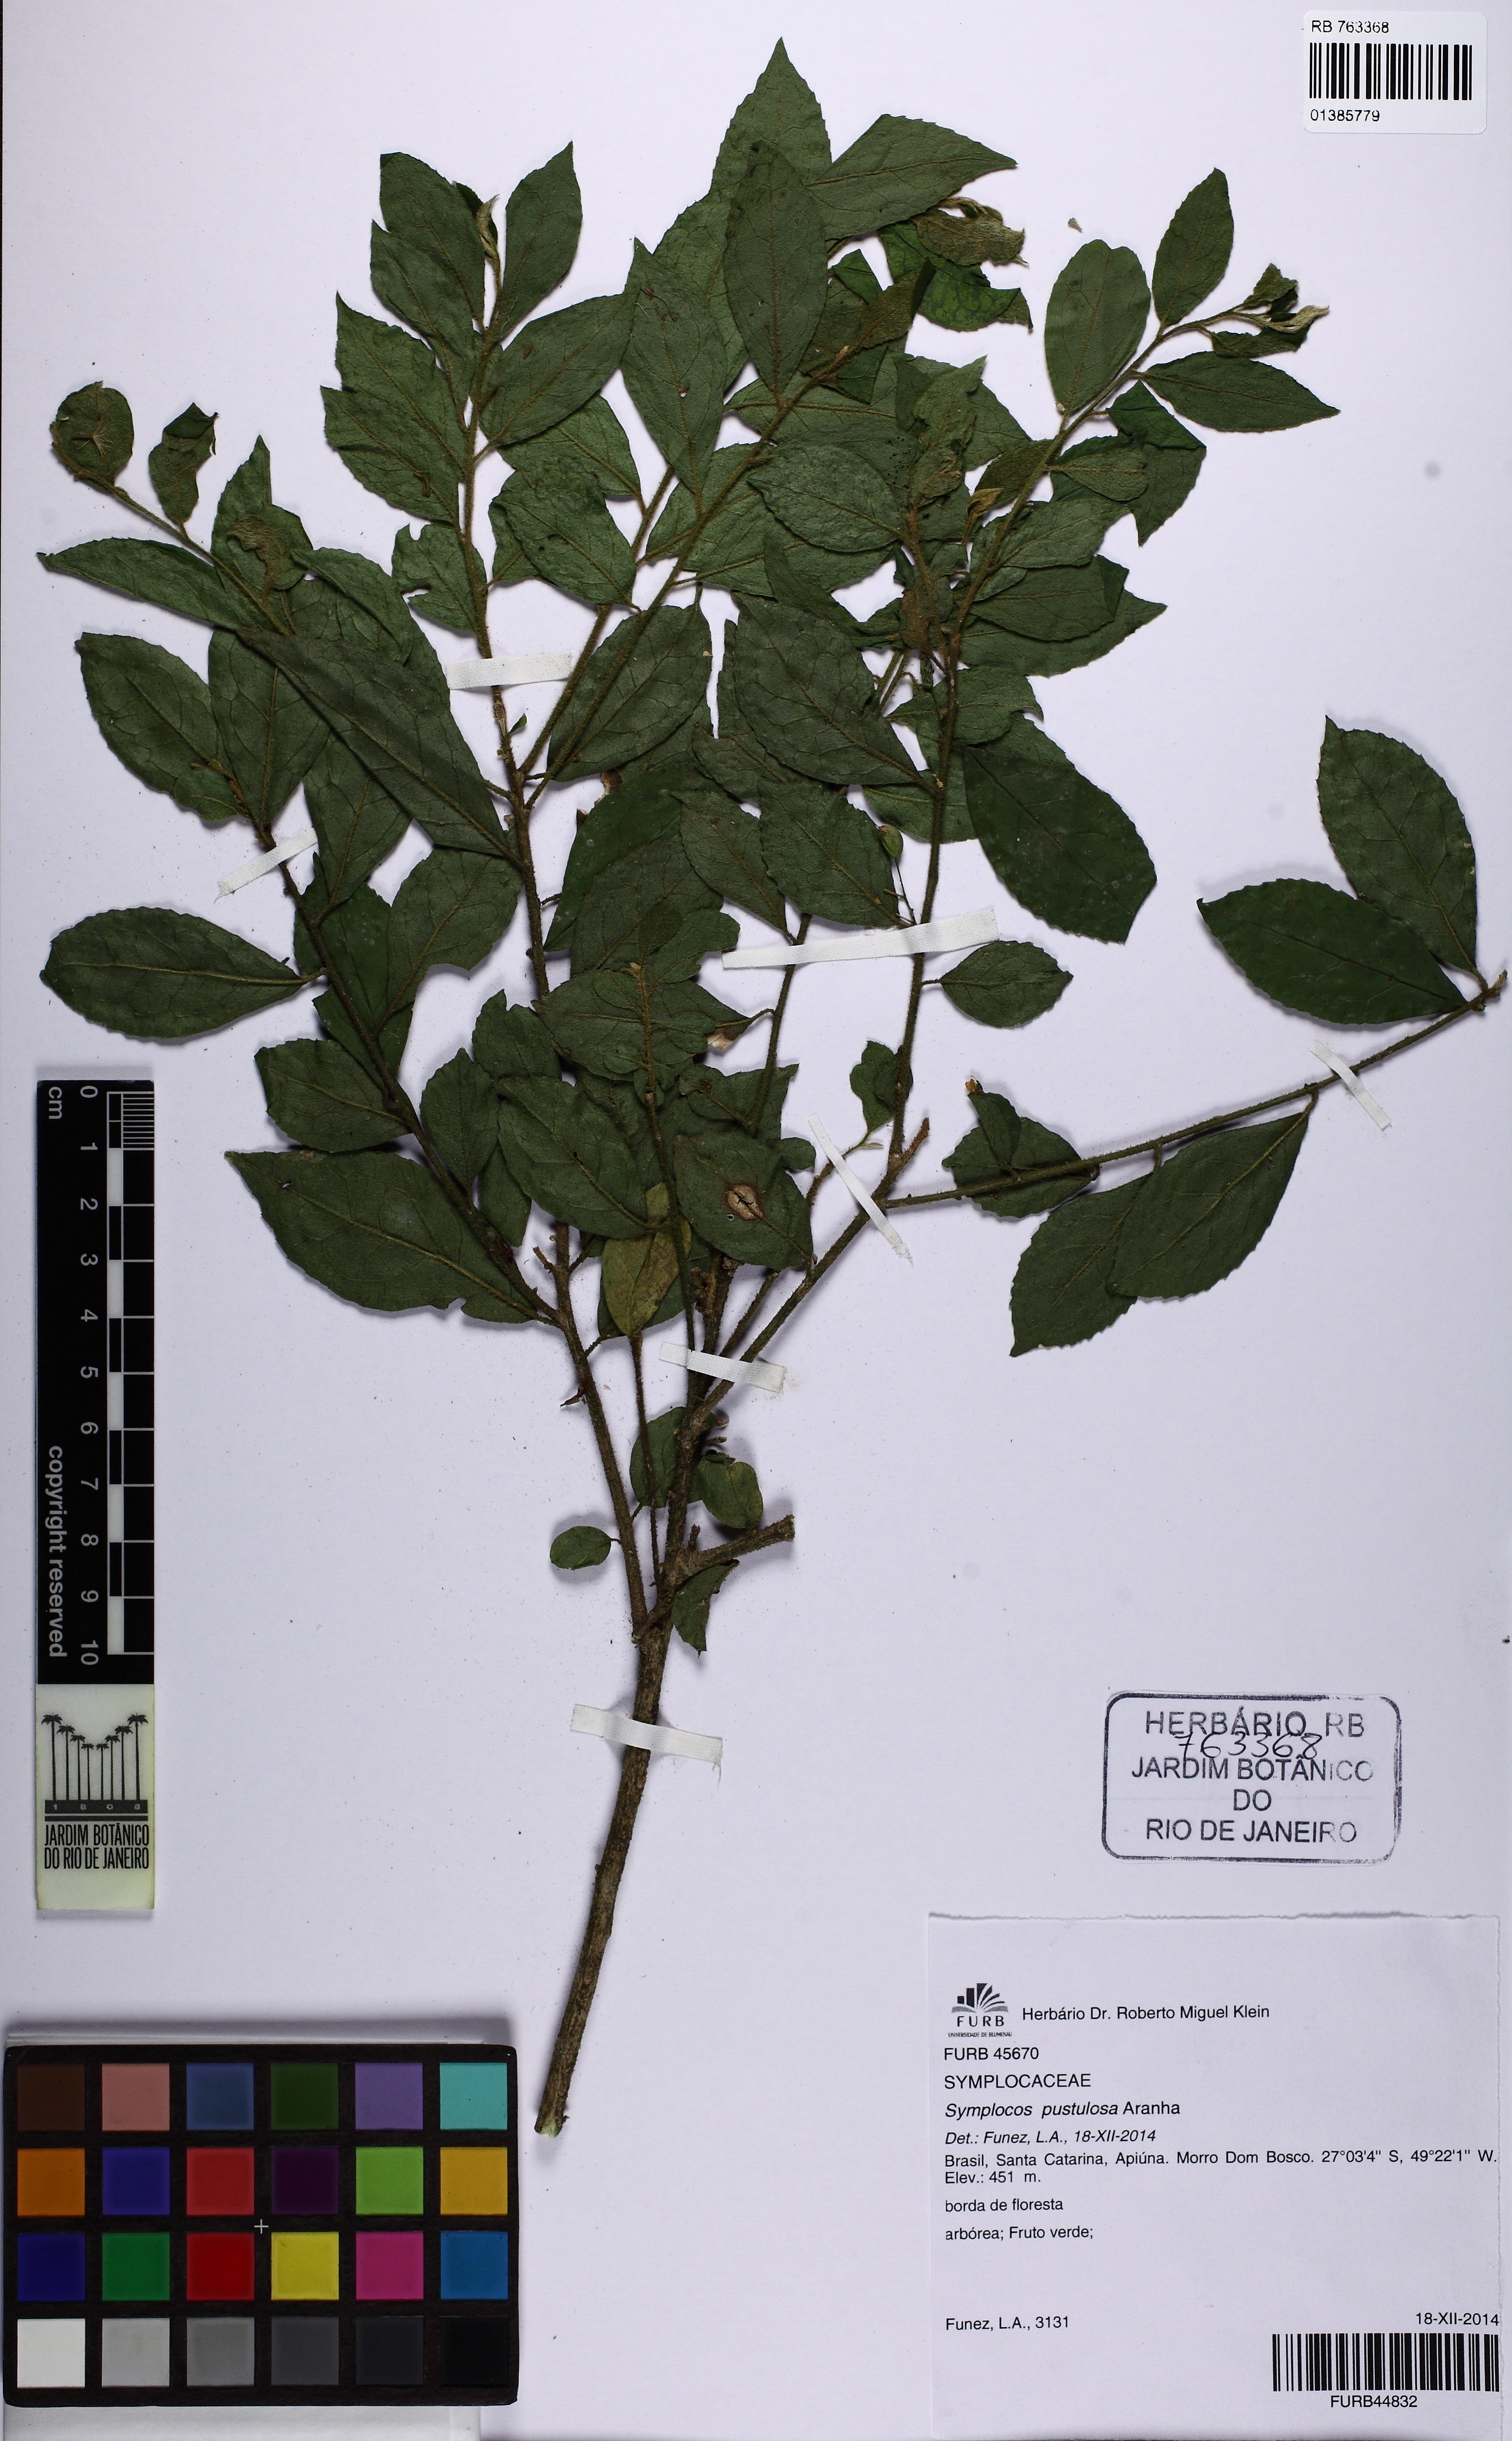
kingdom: Plantae
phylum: Tracheophyta
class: Magnoliopsida
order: Ericales
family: Symplocaceae
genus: Symplocos
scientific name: Symplocos pustulosa
